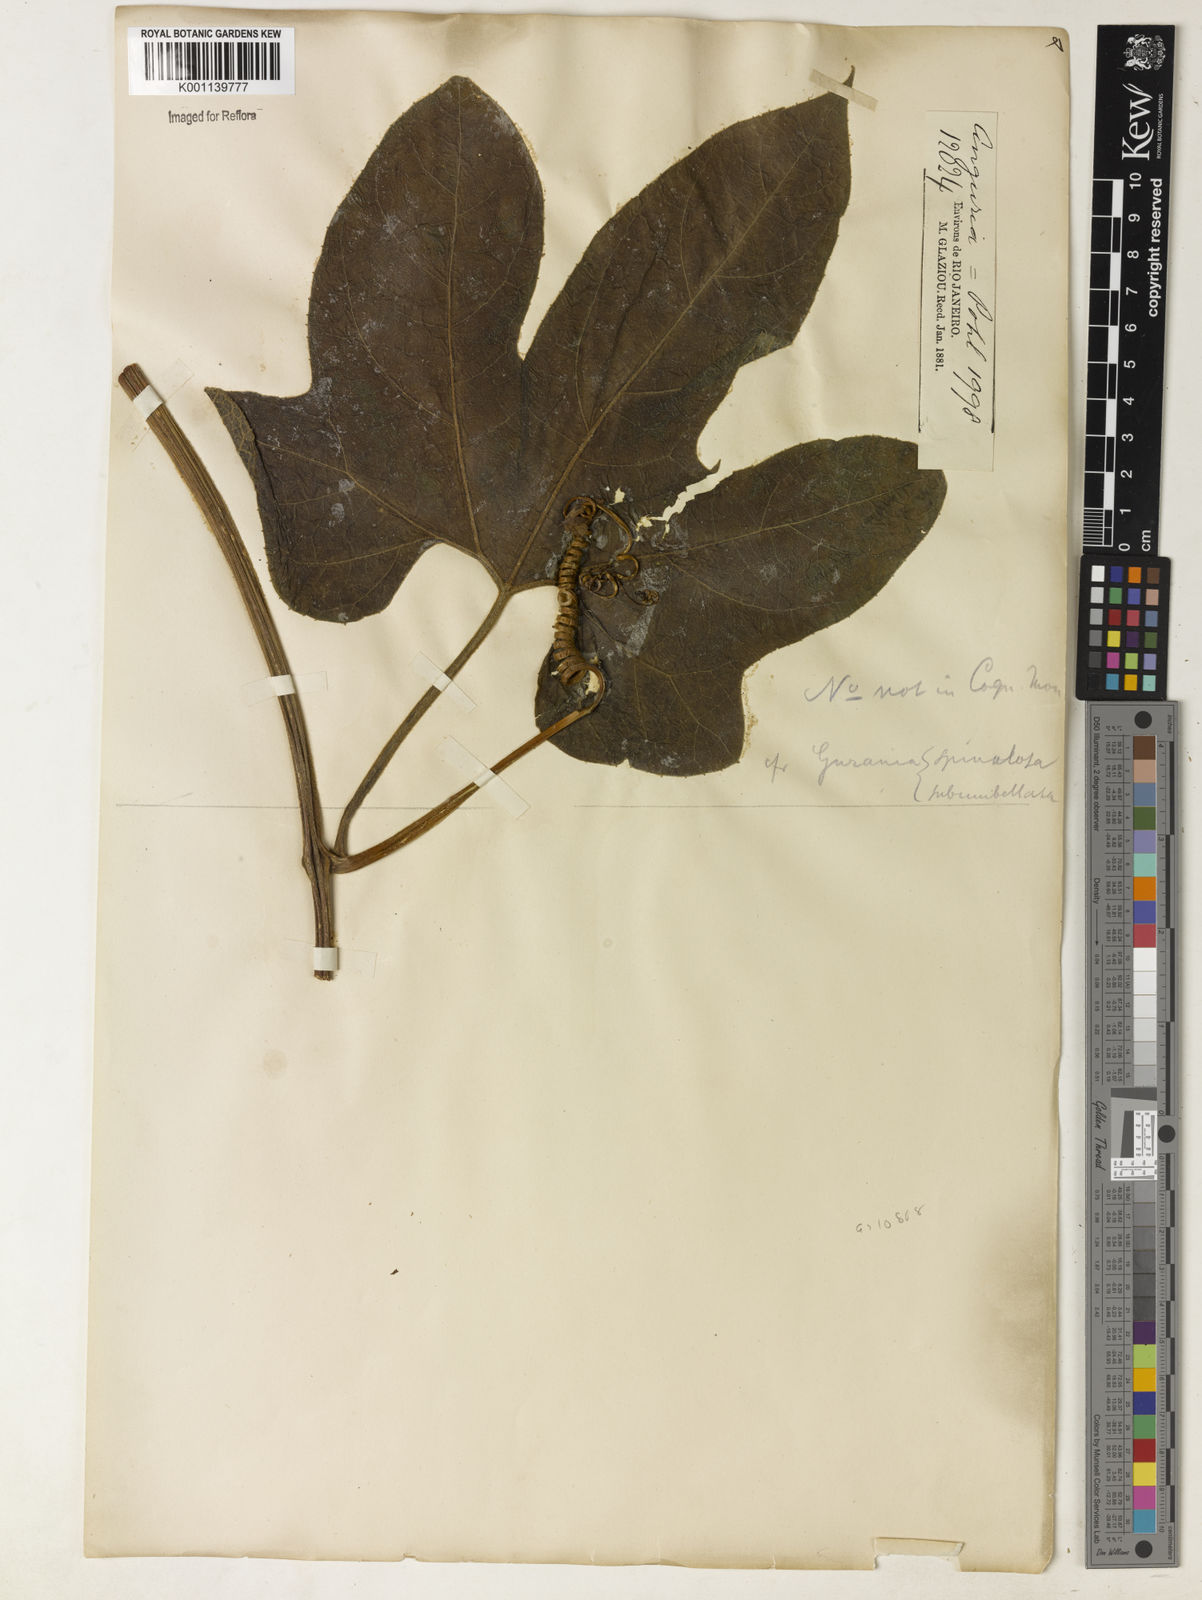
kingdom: Plantae
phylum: Tracheophyta
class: Magnoliopsida
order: Cucurbitales
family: Cucurbitaceae
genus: Gurania
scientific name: Gurania subumbellata
